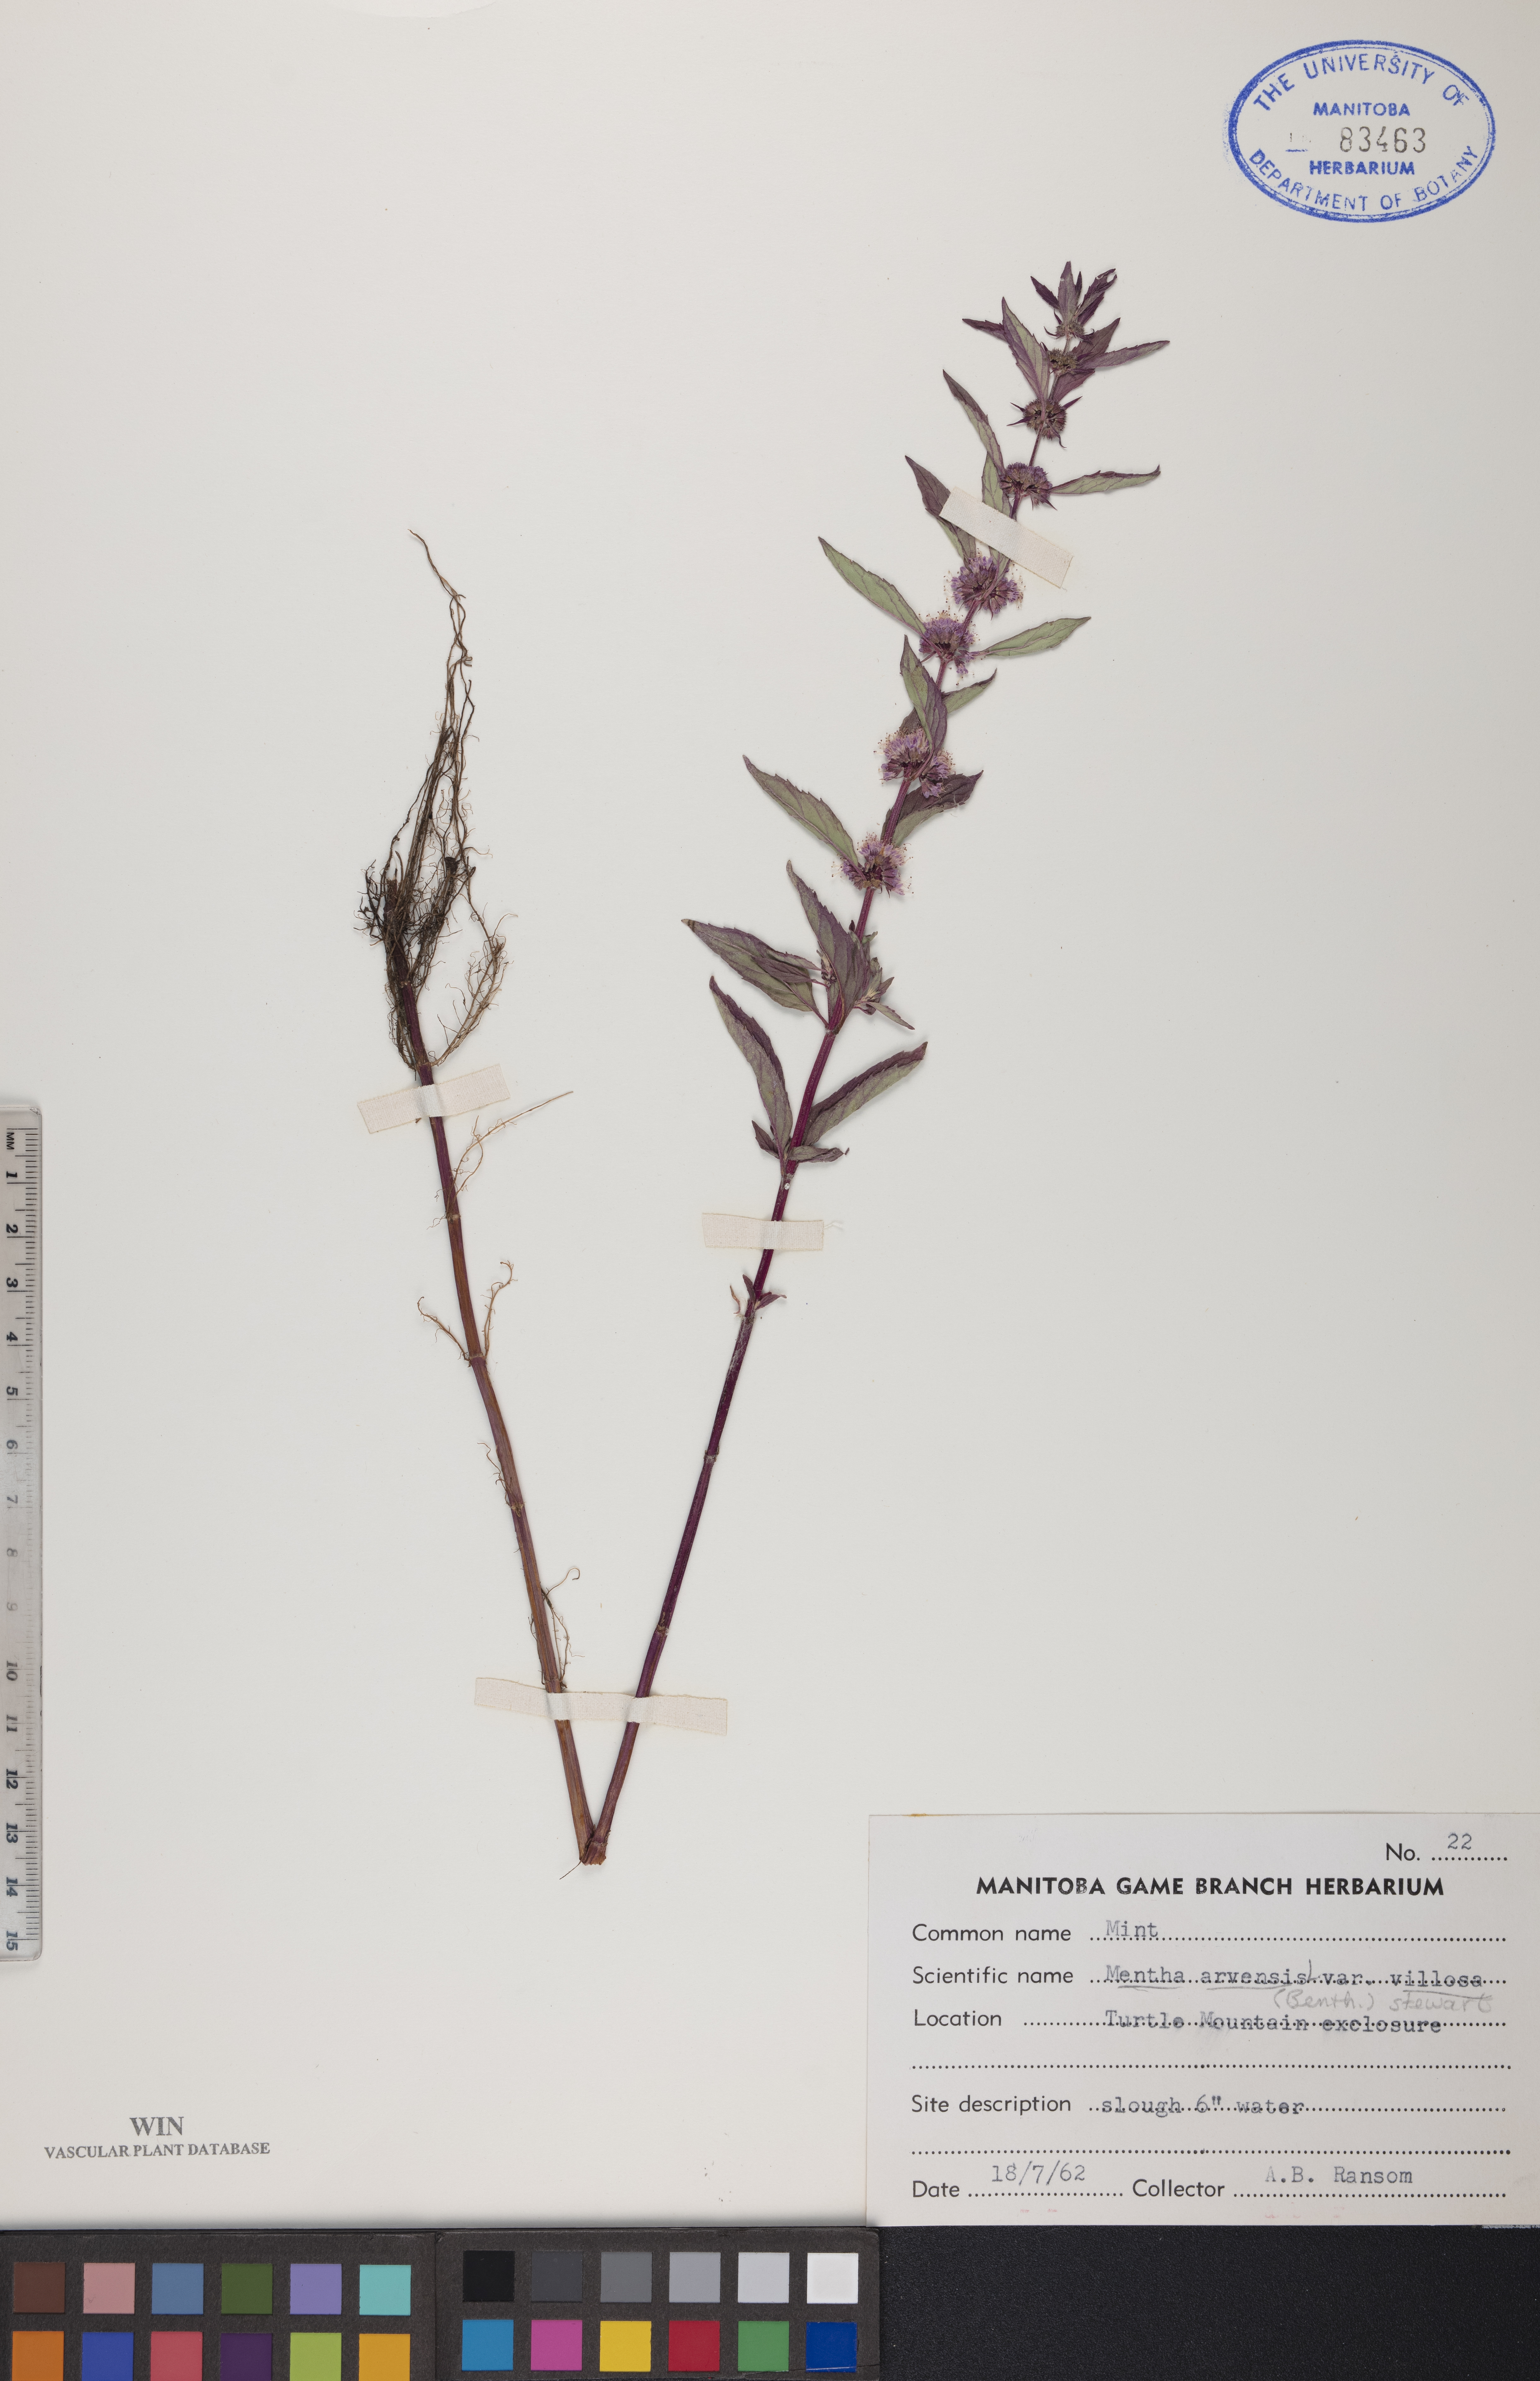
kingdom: Plantae
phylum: Tracheophyta
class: Magnoliopsida
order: Lamiales
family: Lamiaceae
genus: Mentha
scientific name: Mentha canadensis
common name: American corn mint
